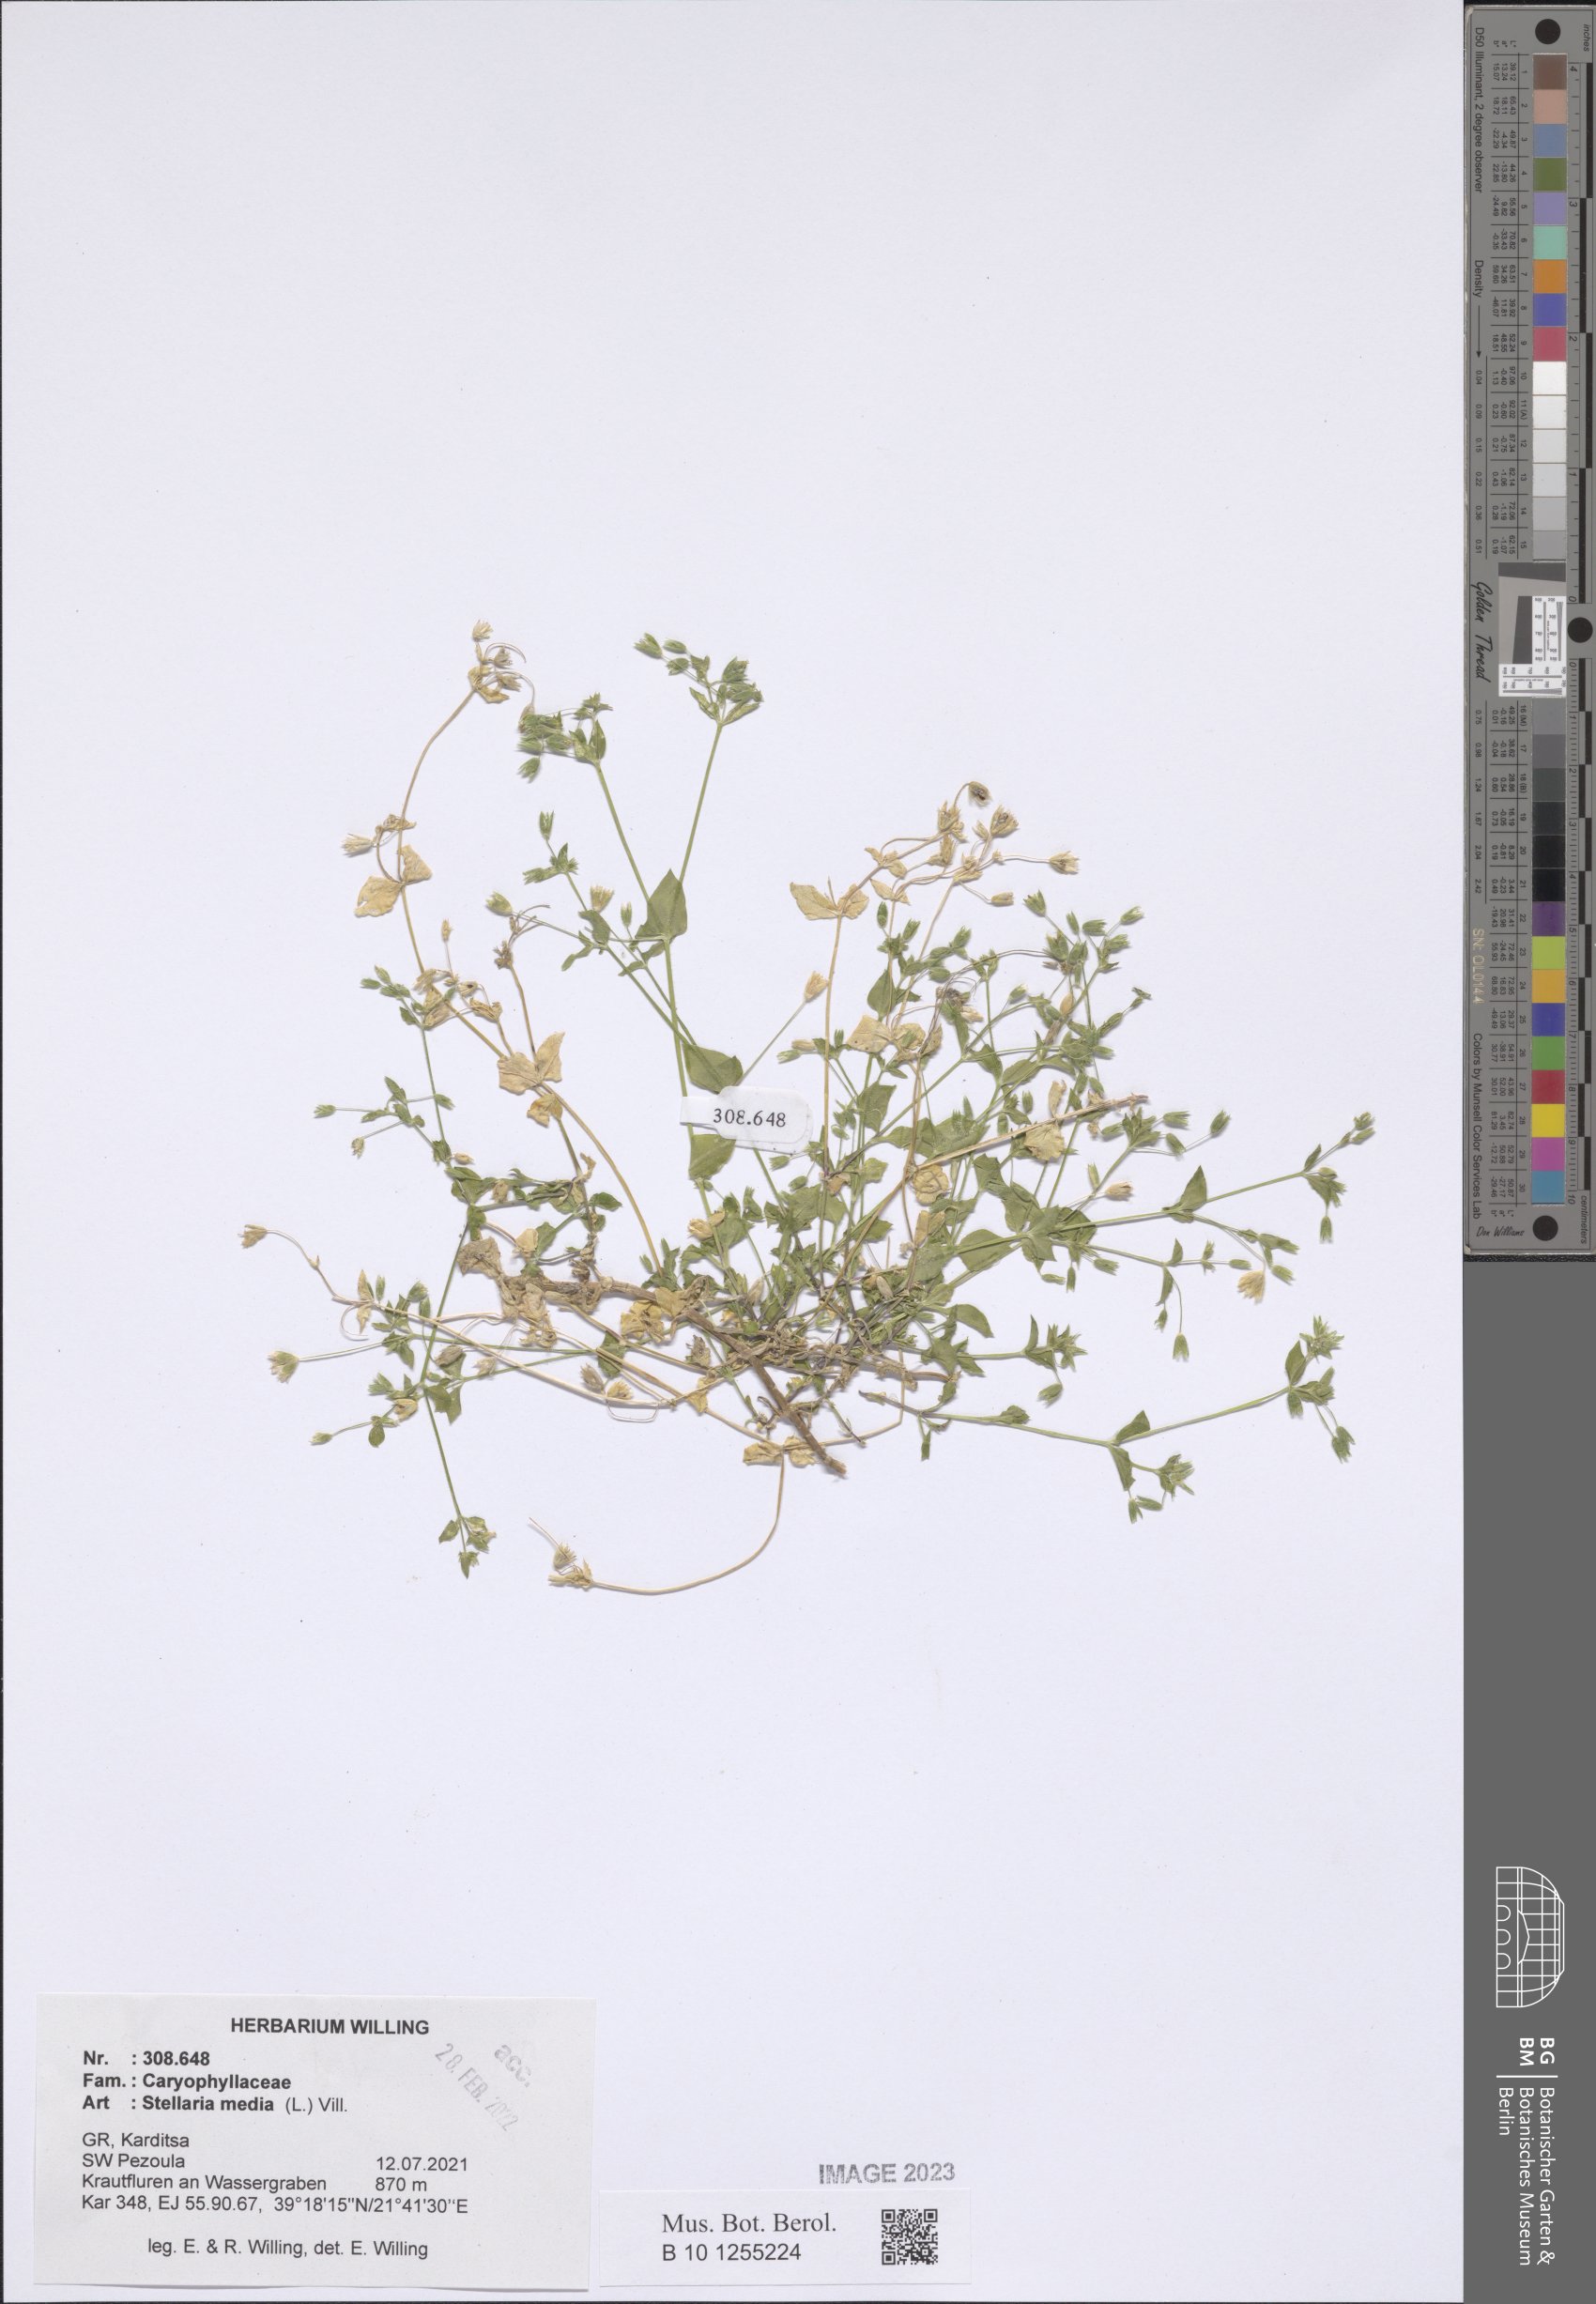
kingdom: Plantae
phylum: Tracheophyta
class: Magnoliopsida
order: Caryophyllales
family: Caryophyllaceae
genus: Stellaria
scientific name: Stellaria media
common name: Common chickweed
